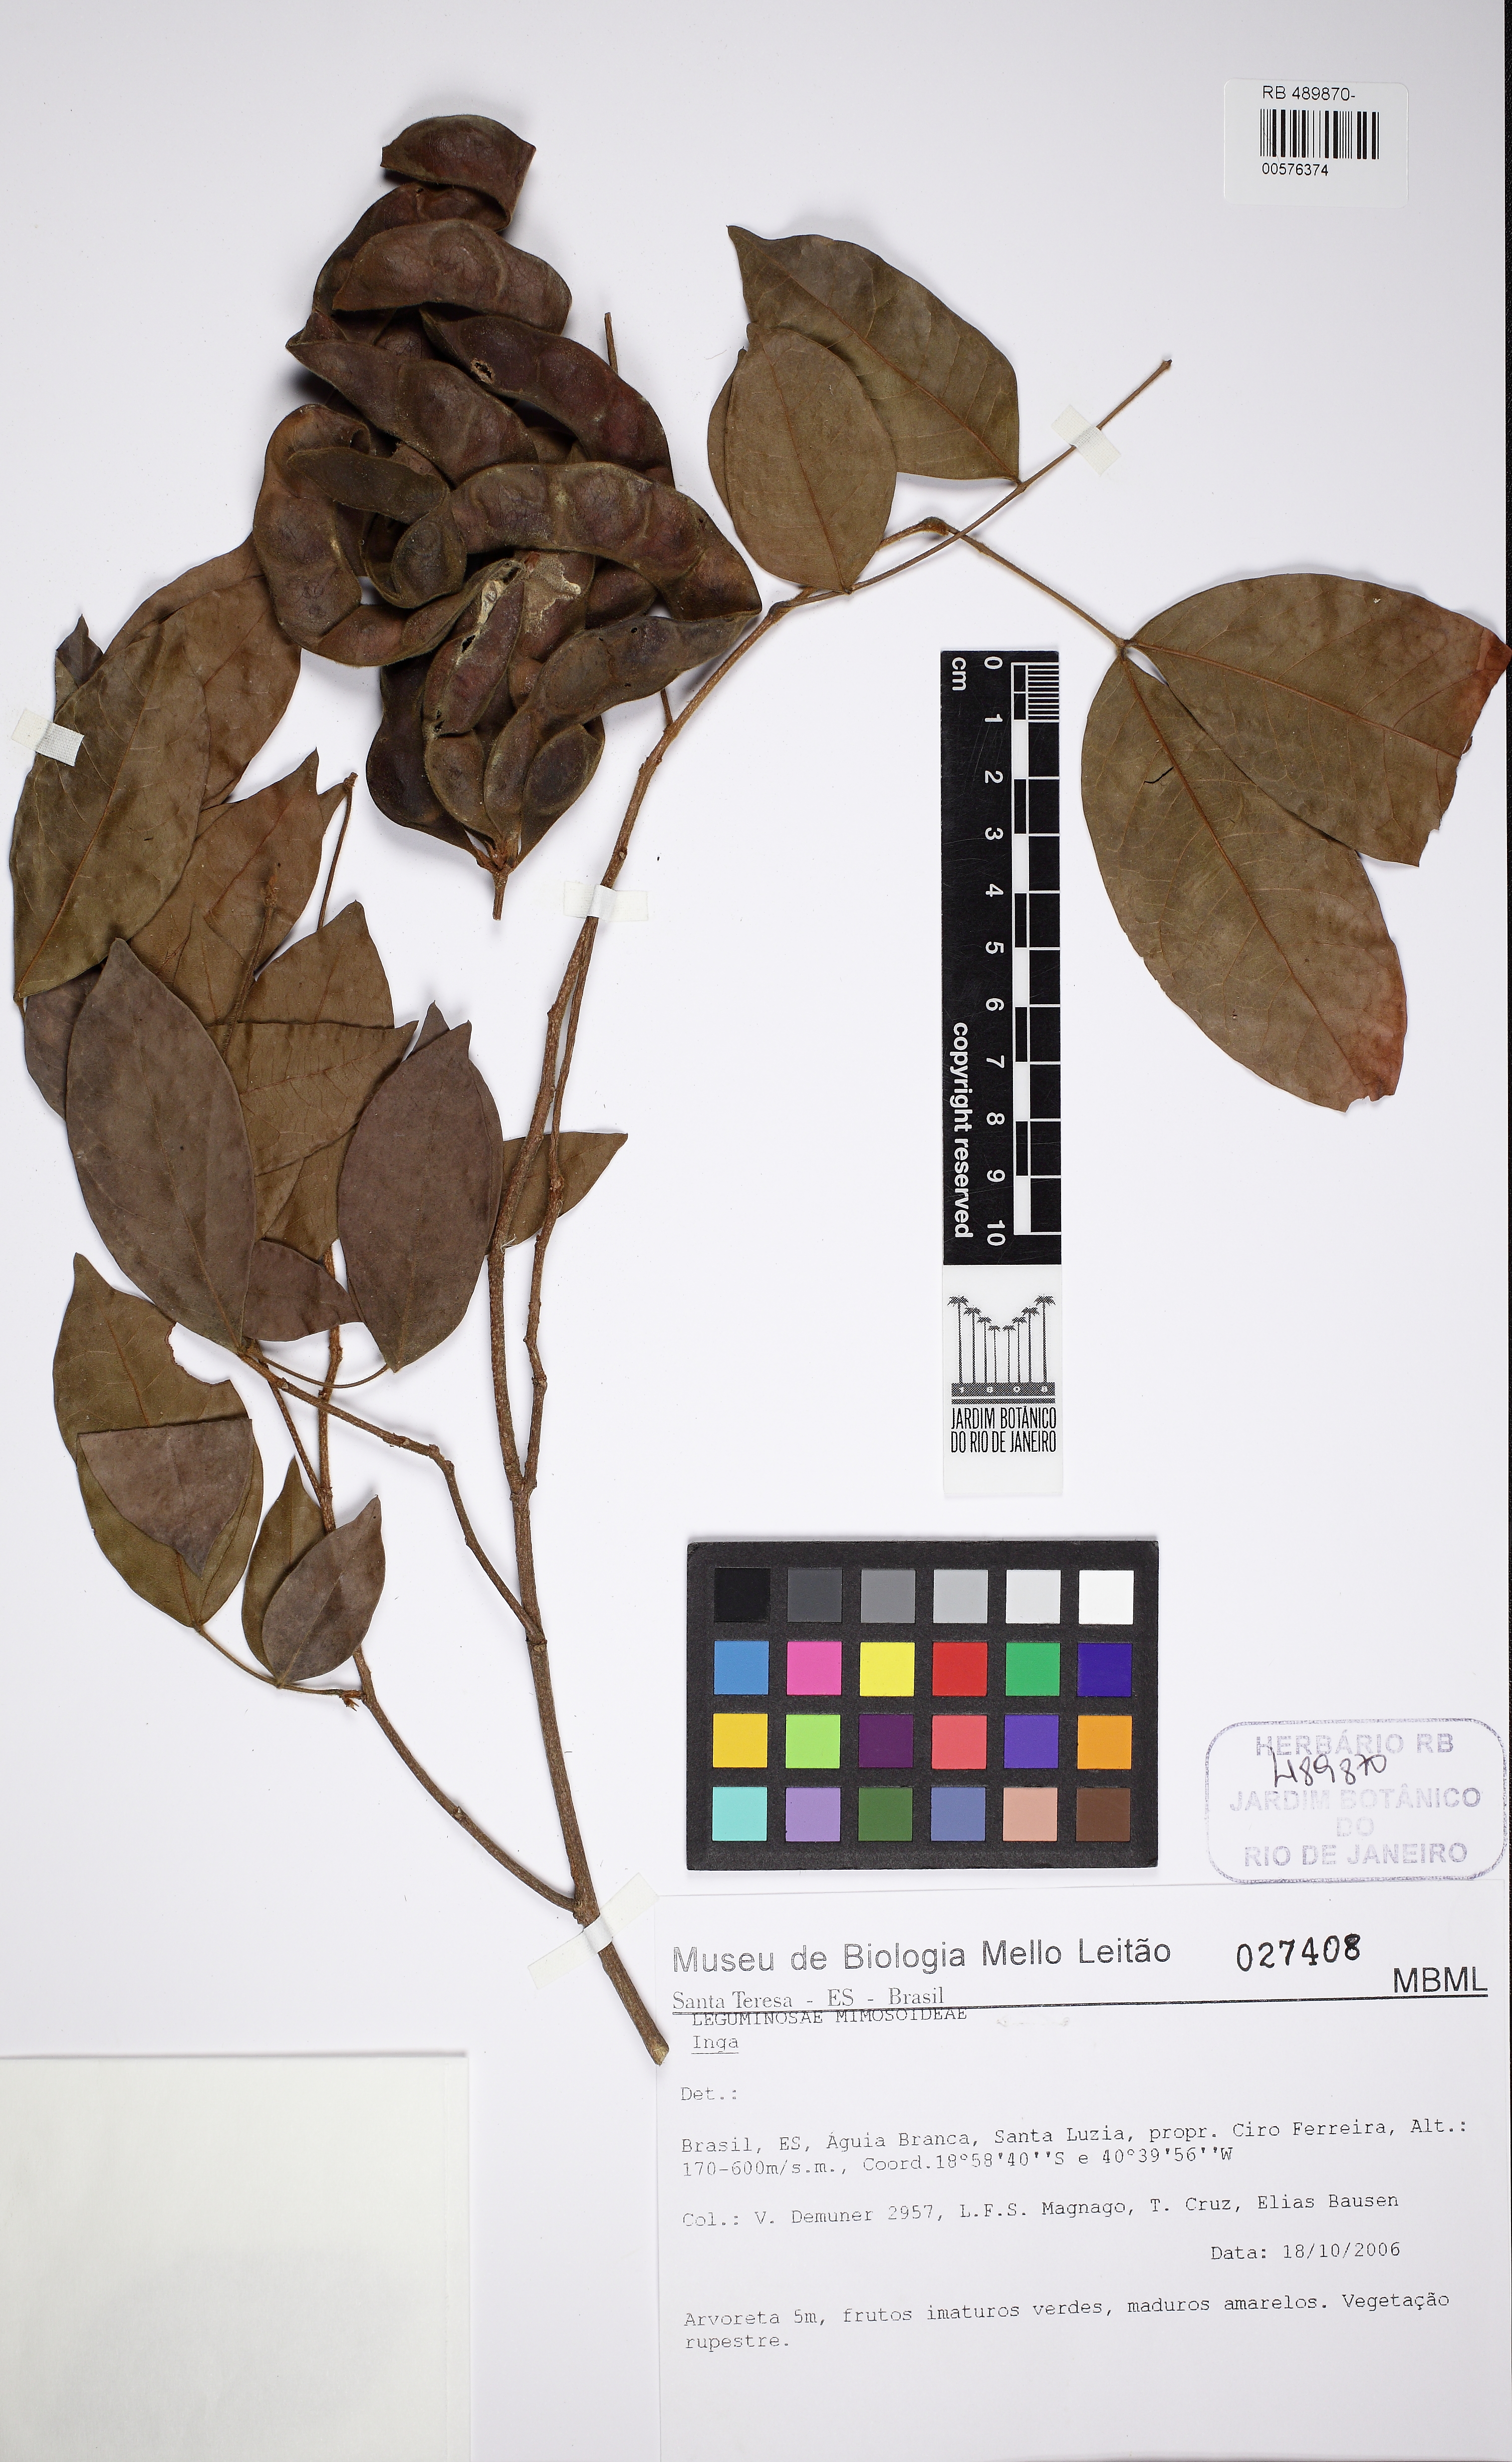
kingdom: Plantae
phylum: Tracheophyta
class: Magnoliopsida
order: Fabales
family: Fabaceae
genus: Inga
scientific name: Inga unica
